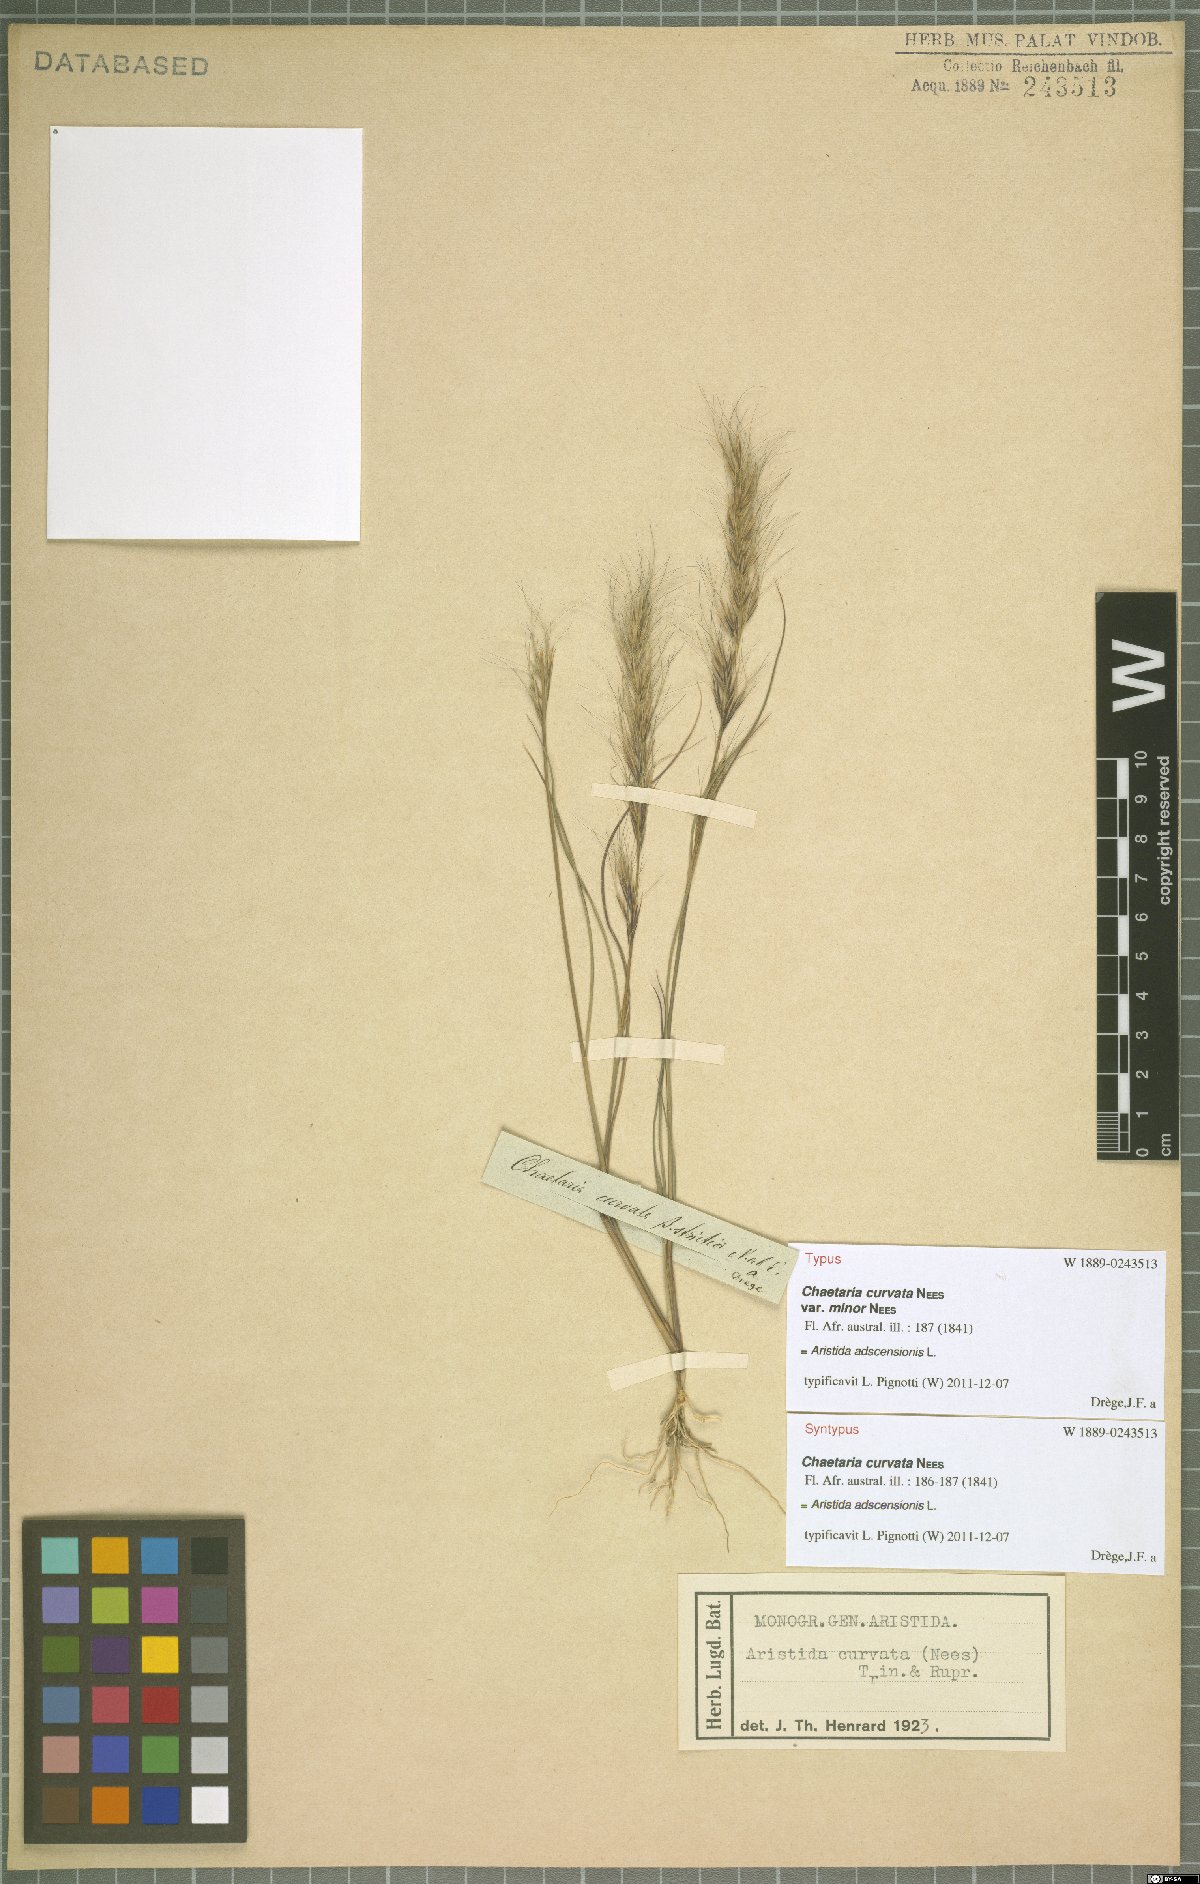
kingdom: Plantae
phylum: Tracheophyta
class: Liliopsida
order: Poales
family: Poaceae
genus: Aristida
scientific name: Aristida adscensionis
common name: Sixweeks threeawn
